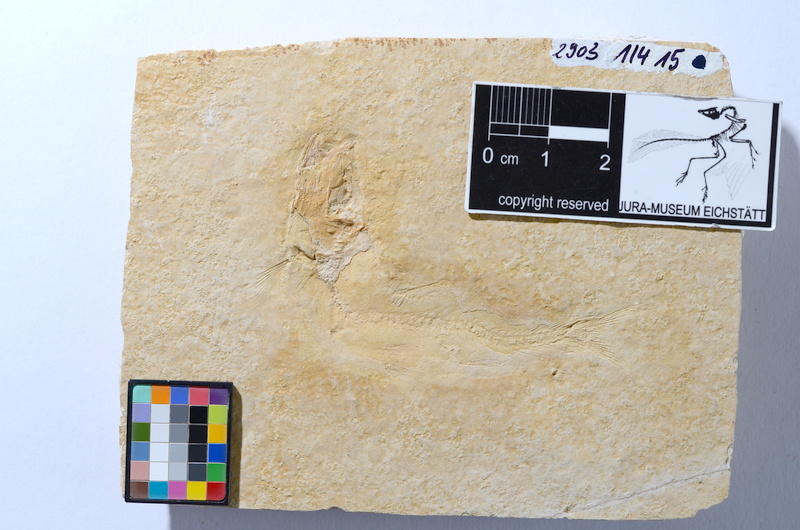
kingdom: Animalia
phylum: Chordata
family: Ascalaboidae
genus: Tharsis
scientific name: Tharsis dubius
